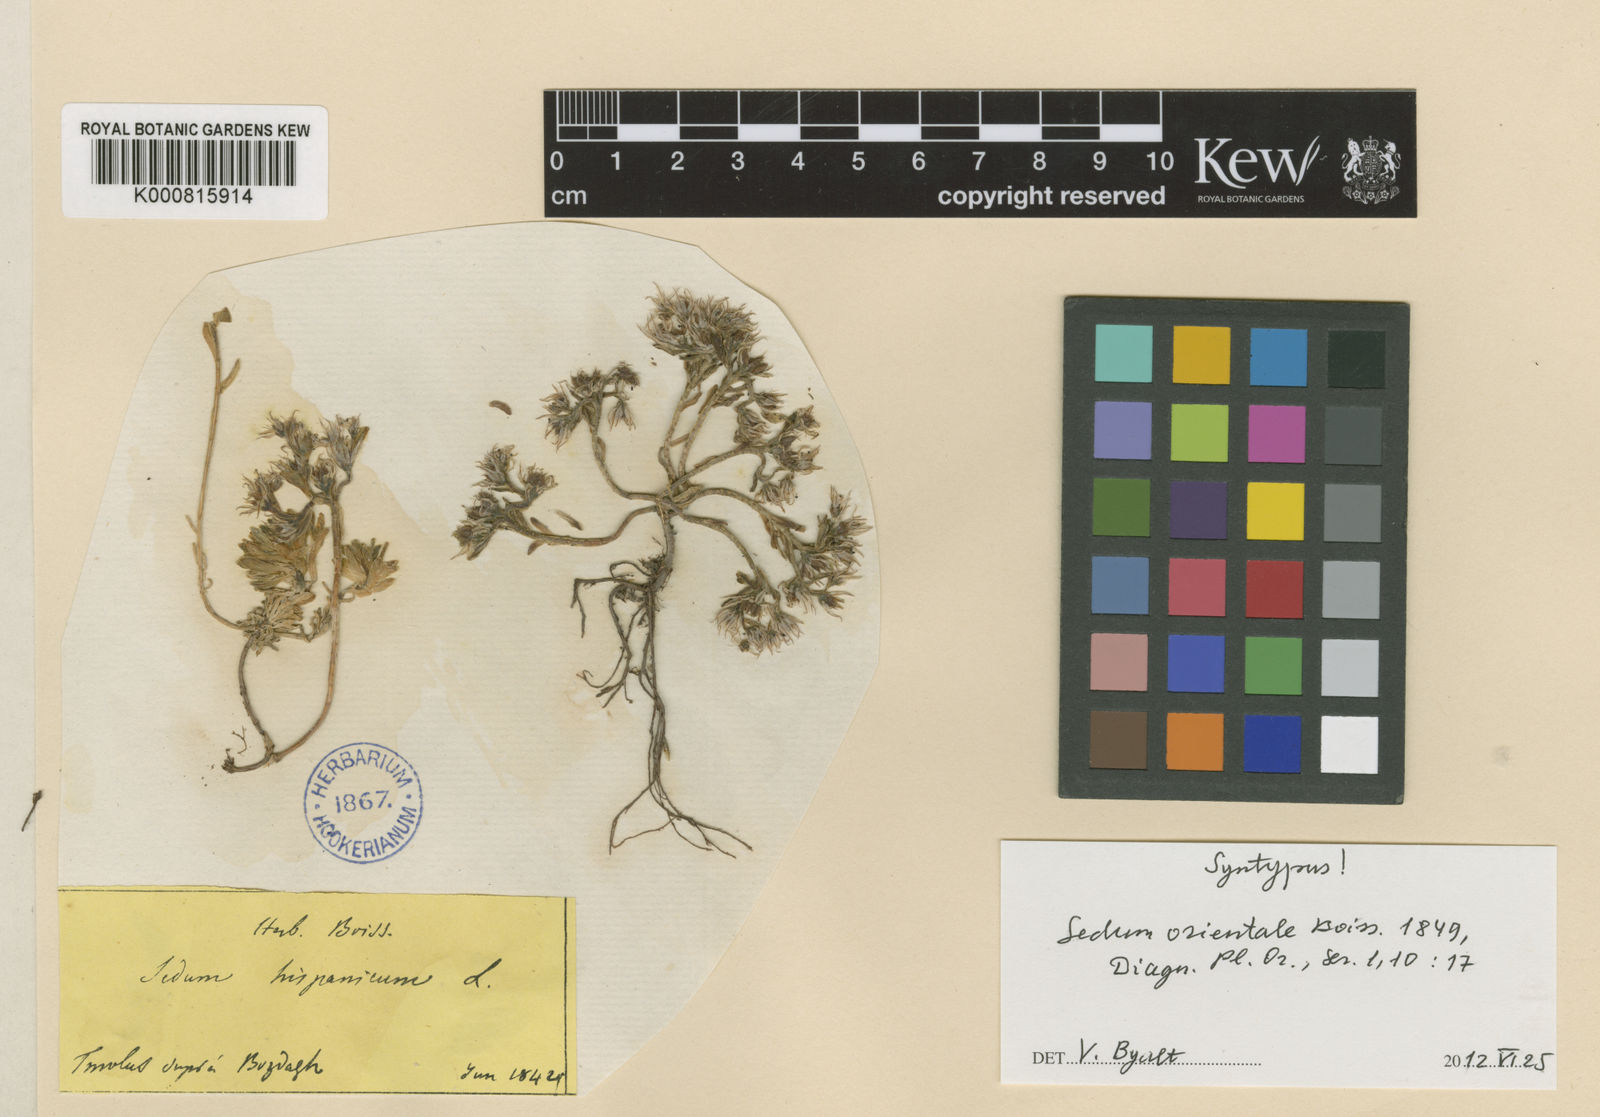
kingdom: Plantae
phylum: Tracheophyta
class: Magnoliopsida
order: Saxifragales
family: Crassulaceae
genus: Sedum
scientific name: Sedum hispanicum
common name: Spanish stonecrop
